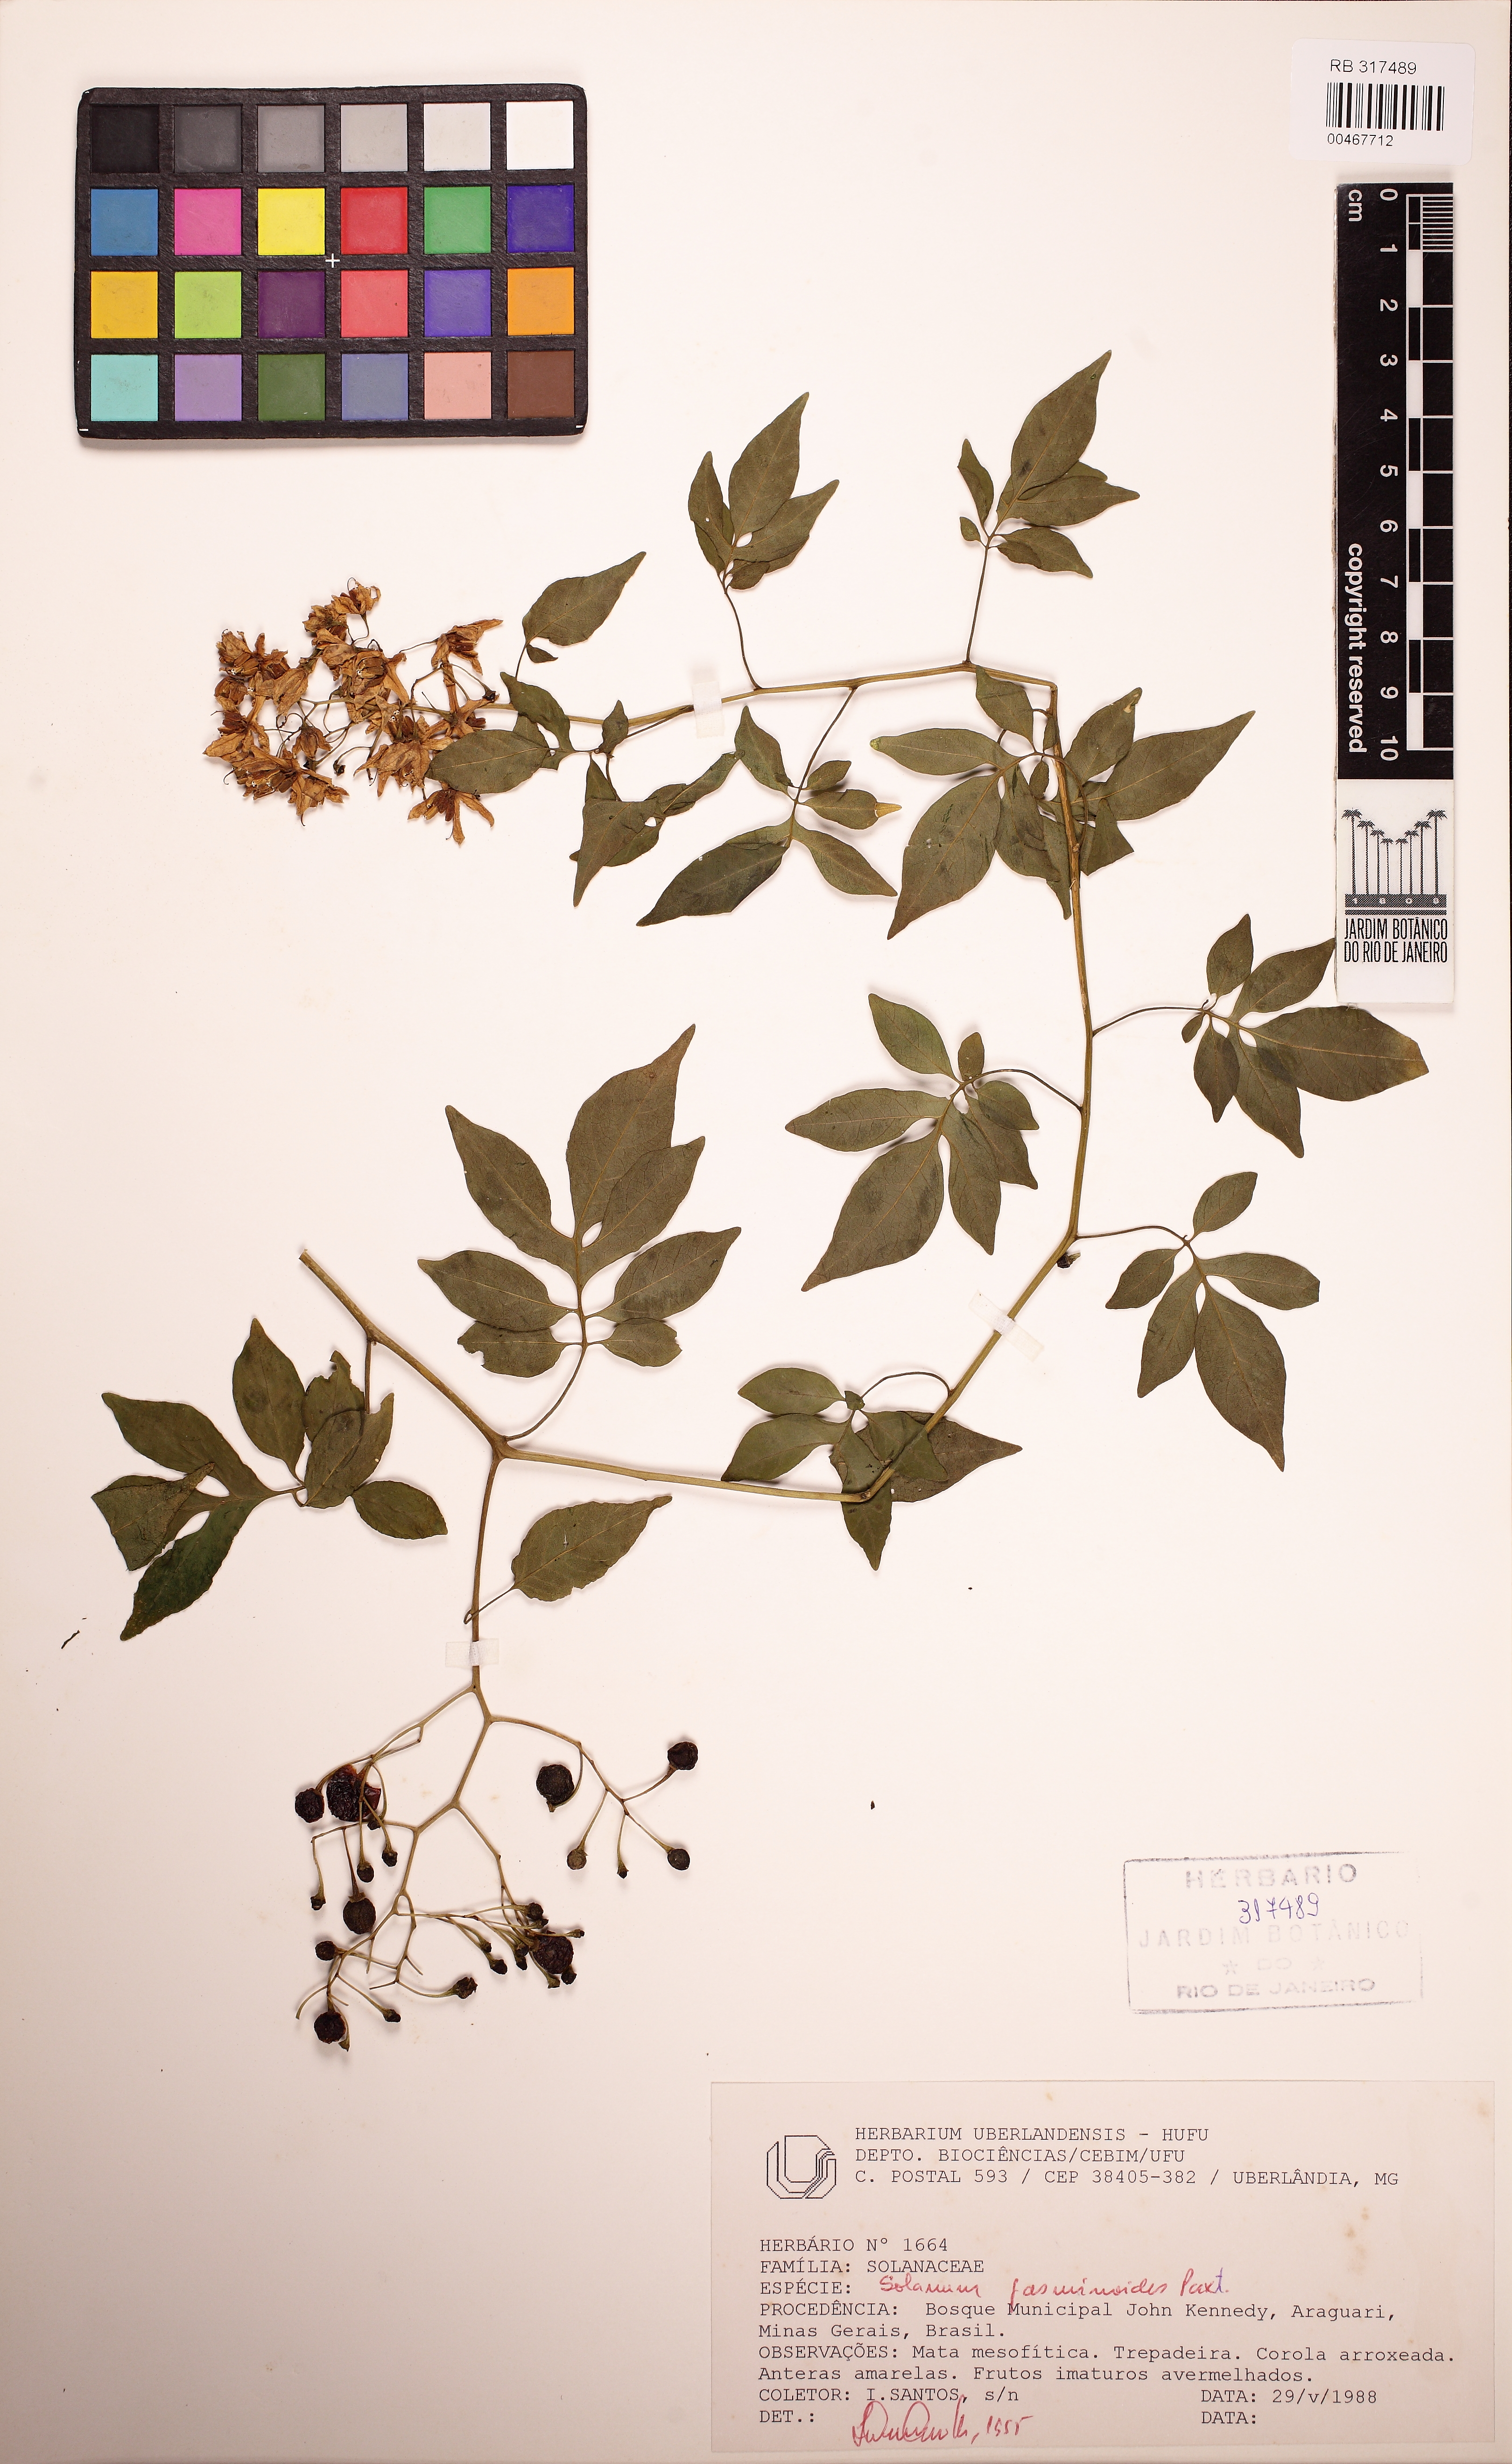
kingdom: Plantae
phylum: Tracheophyta
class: Magnoliopsida
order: Solanales
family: Solanaceae
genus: Solanum
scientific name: Solanum laxum
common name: Nightshade
